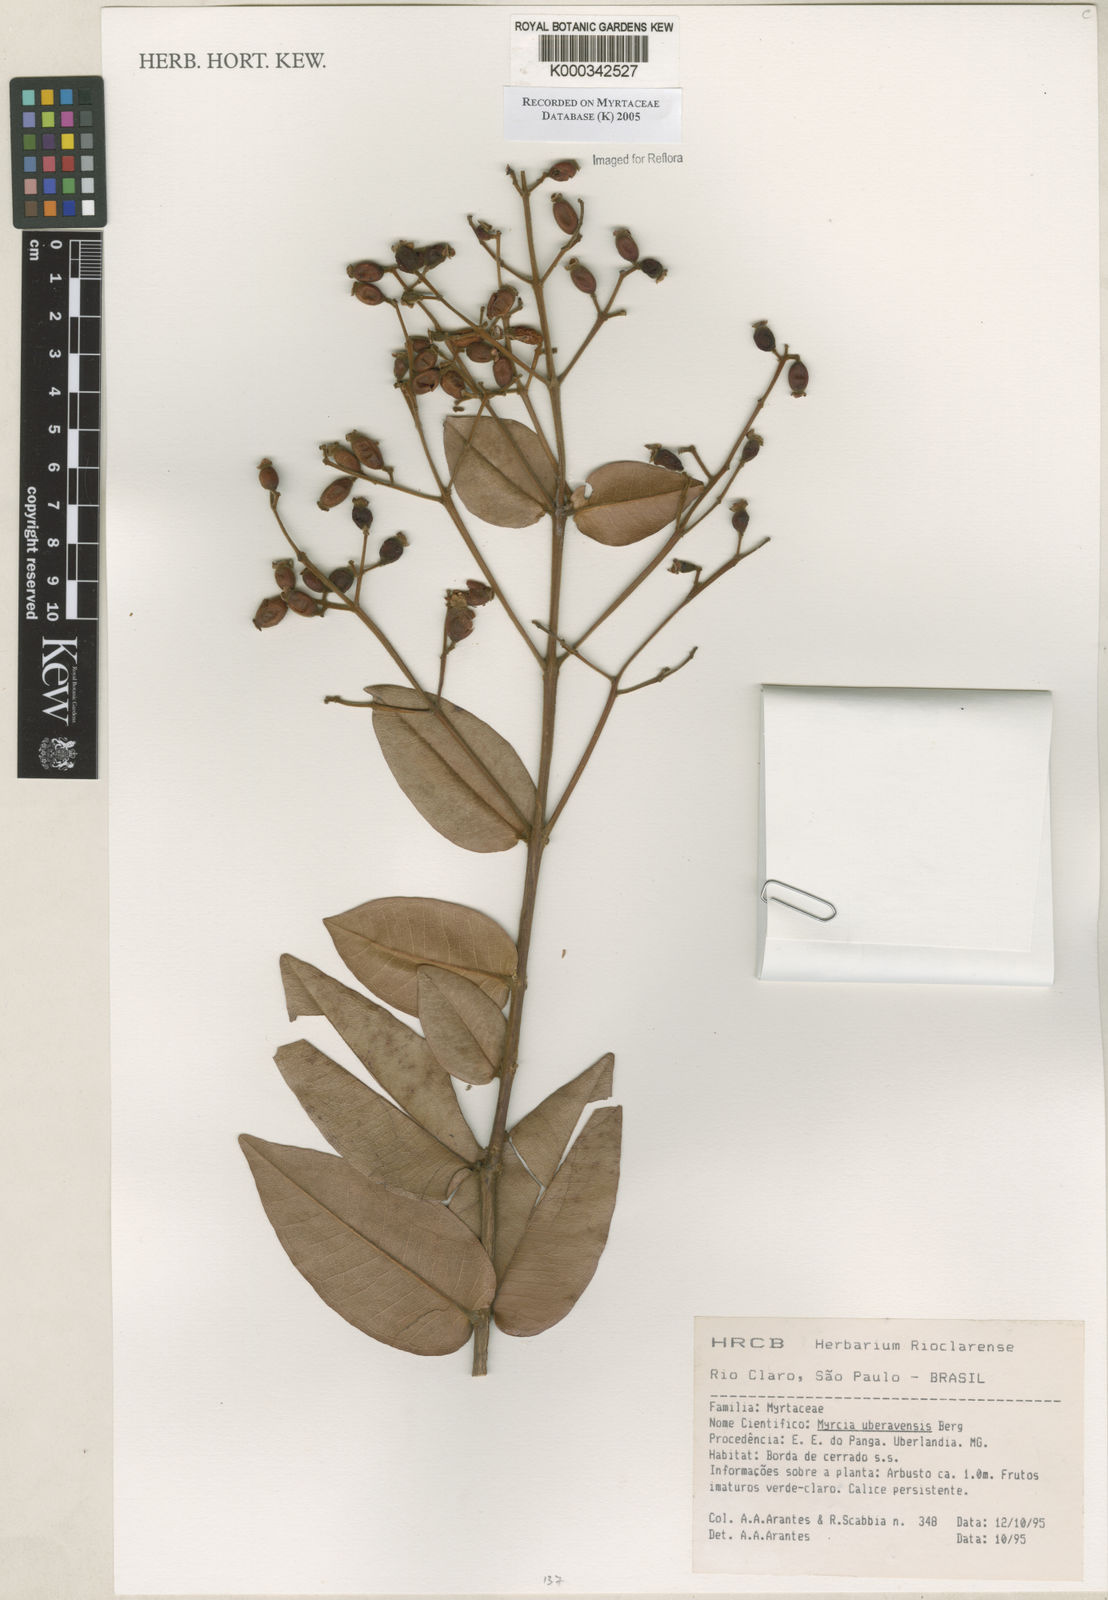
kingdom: Plantae
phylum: Tracheophyta
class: Magnoliopsida
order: Myrtales
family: Myrtaceae
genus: Myrcia
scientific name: Myrcia uberavensis
